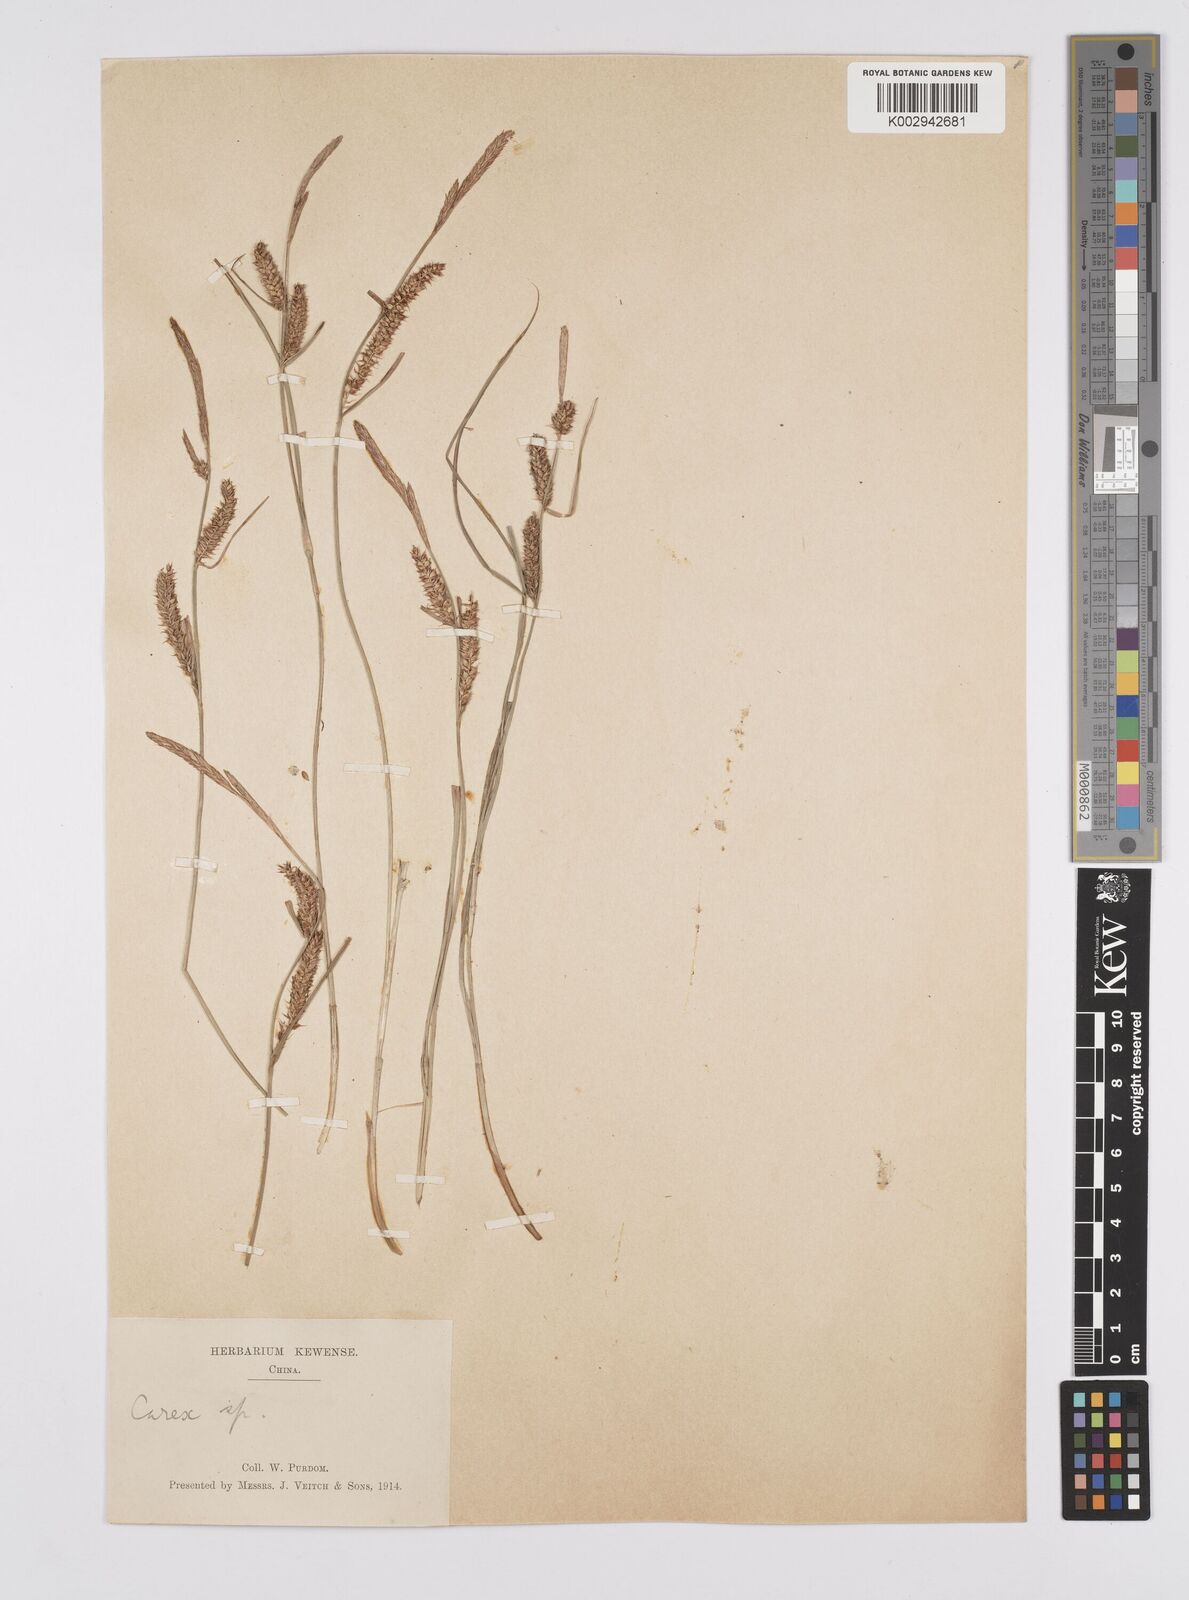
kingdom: Plantae
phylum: Tracheophyta
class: Liliopsida
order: Poales
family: Cyperaceae
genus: Carex
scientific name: Carex melanostachya
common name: Black-spiked sedge
